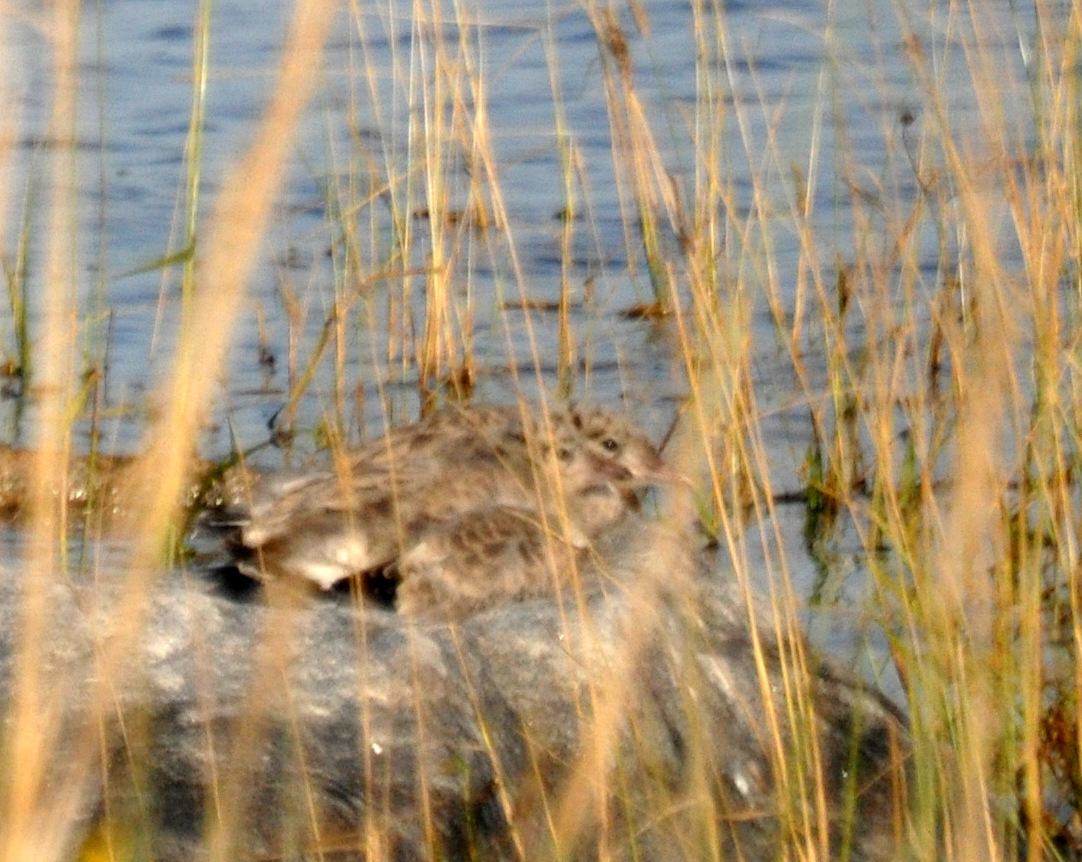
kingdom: Animalia
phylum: Chordata
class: Aves
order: Charadriiformes
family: Laridae
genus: Larus
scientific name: Larus canus
